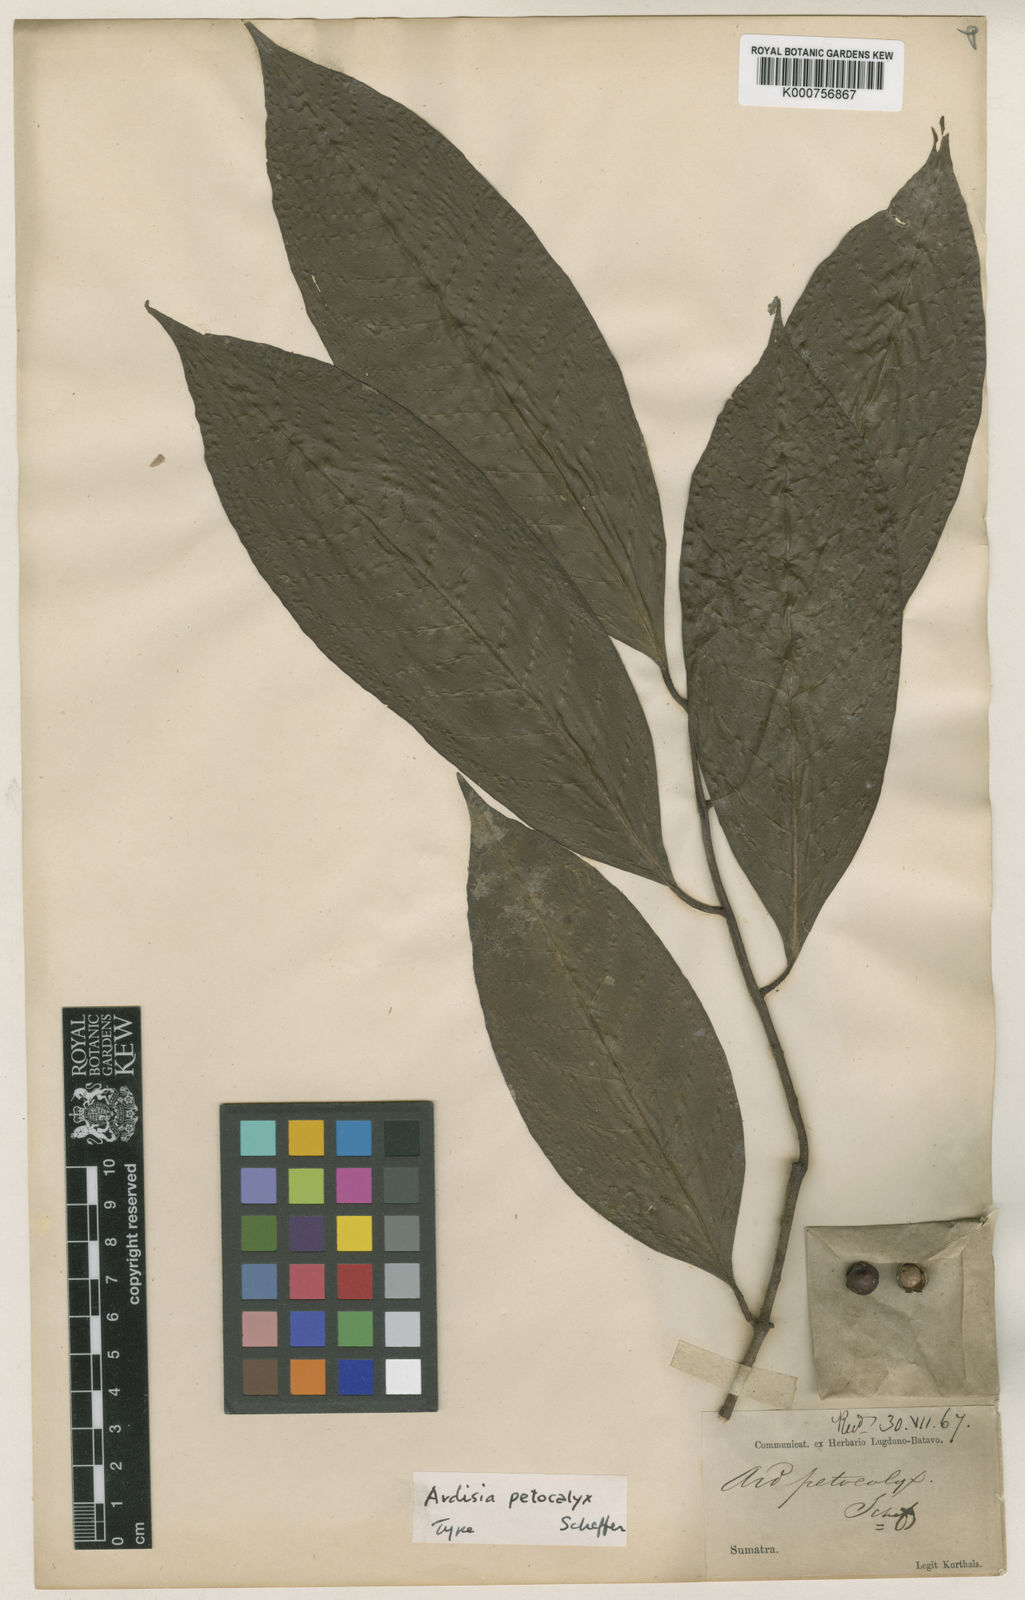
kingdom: Plantae
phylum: Tracheophyta
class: Magnoliopsida
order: Ericales
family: Primulaceae
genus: Ardisia
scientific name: Ardisia petocalyx
